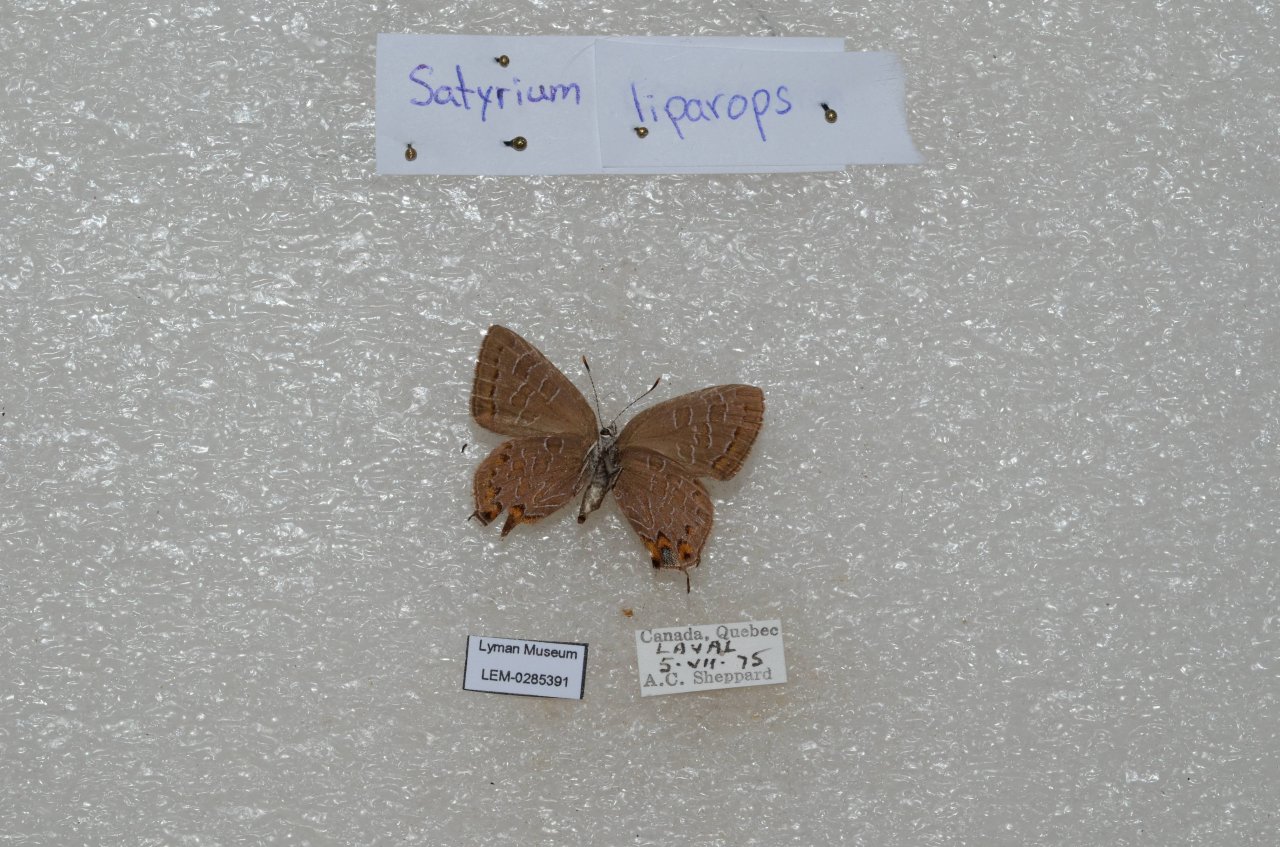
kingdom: Animalia
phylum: Arthropoda
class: Insecta
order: Lepidoptera
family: Lycaenidae
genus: Satyrium
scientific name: Satyrium liparops
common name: Striped Hairstreak
